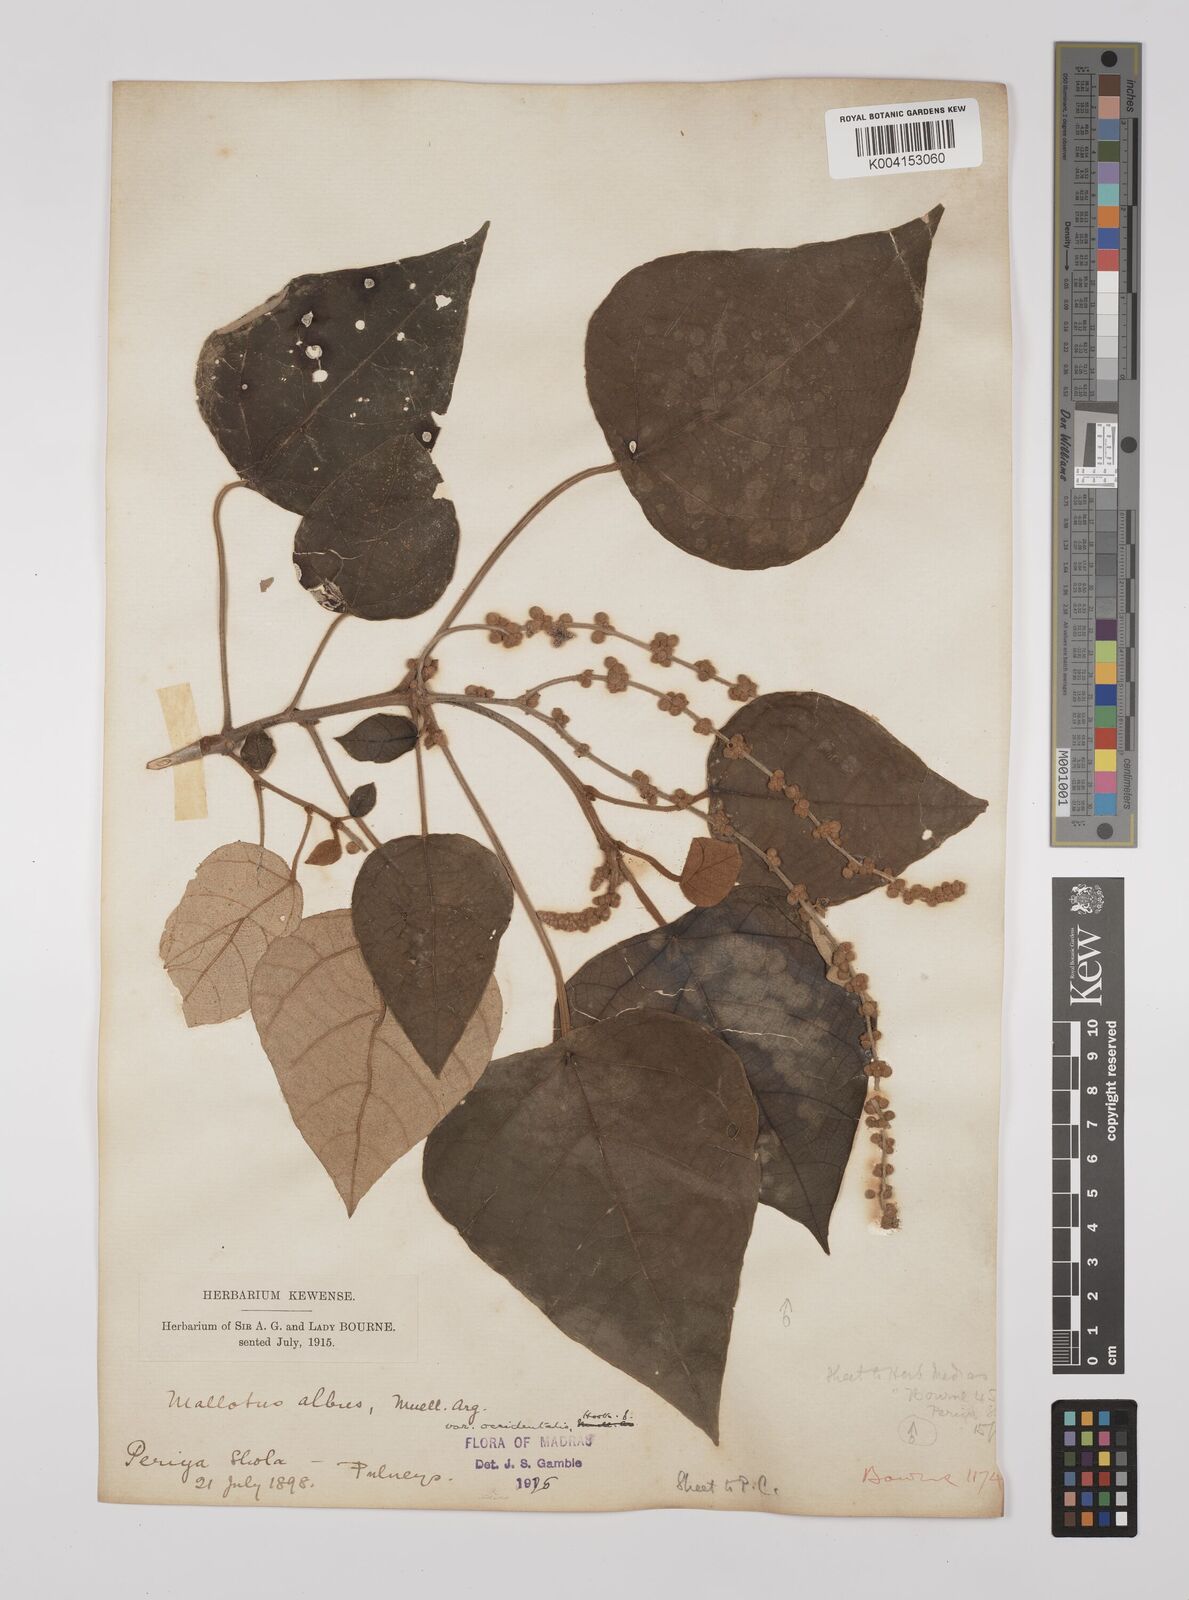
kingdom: Plantae
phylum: Tracheophyta
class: Magnoliopsida
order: Malpighiales
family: Euphorbiaceae
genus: Mallotus
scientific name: Mallotus tetracoccus
